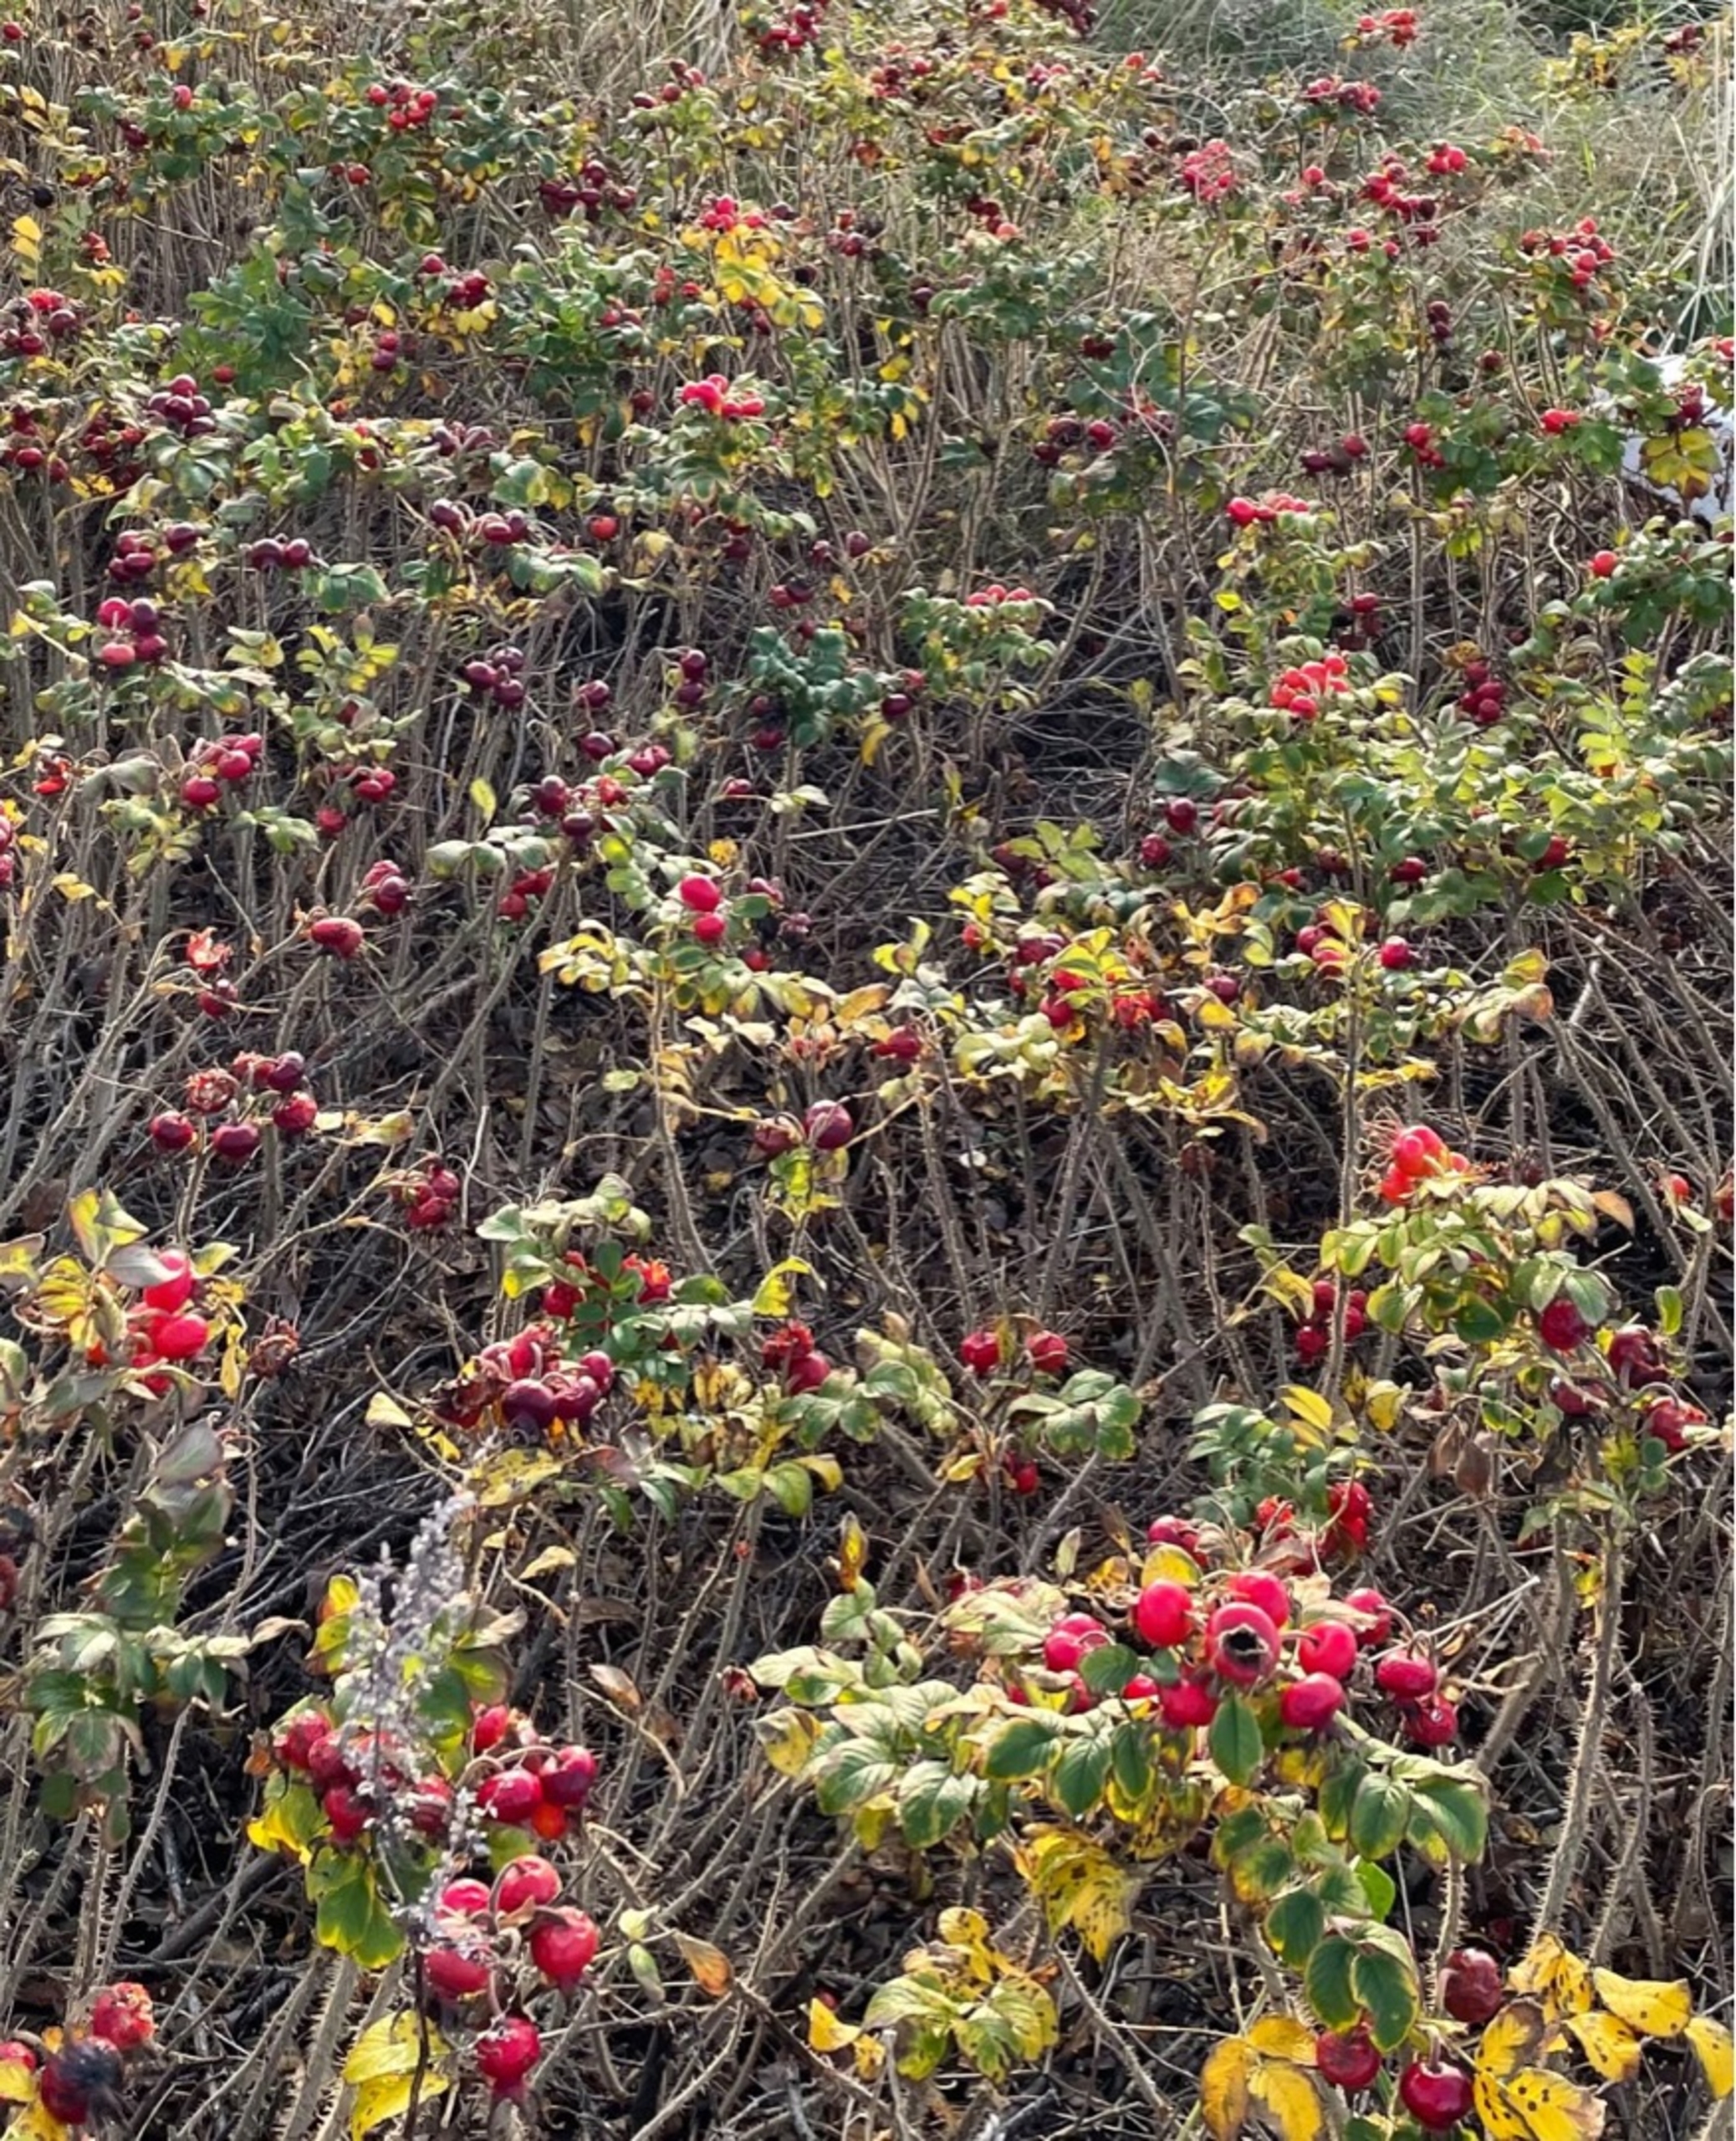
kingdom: Plantae
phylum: Tracheophyta
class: Magnoliopsida
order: Rosales
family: Rosaceae
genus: Rosa
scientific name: Rosa rugosa
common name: Rynket rose
